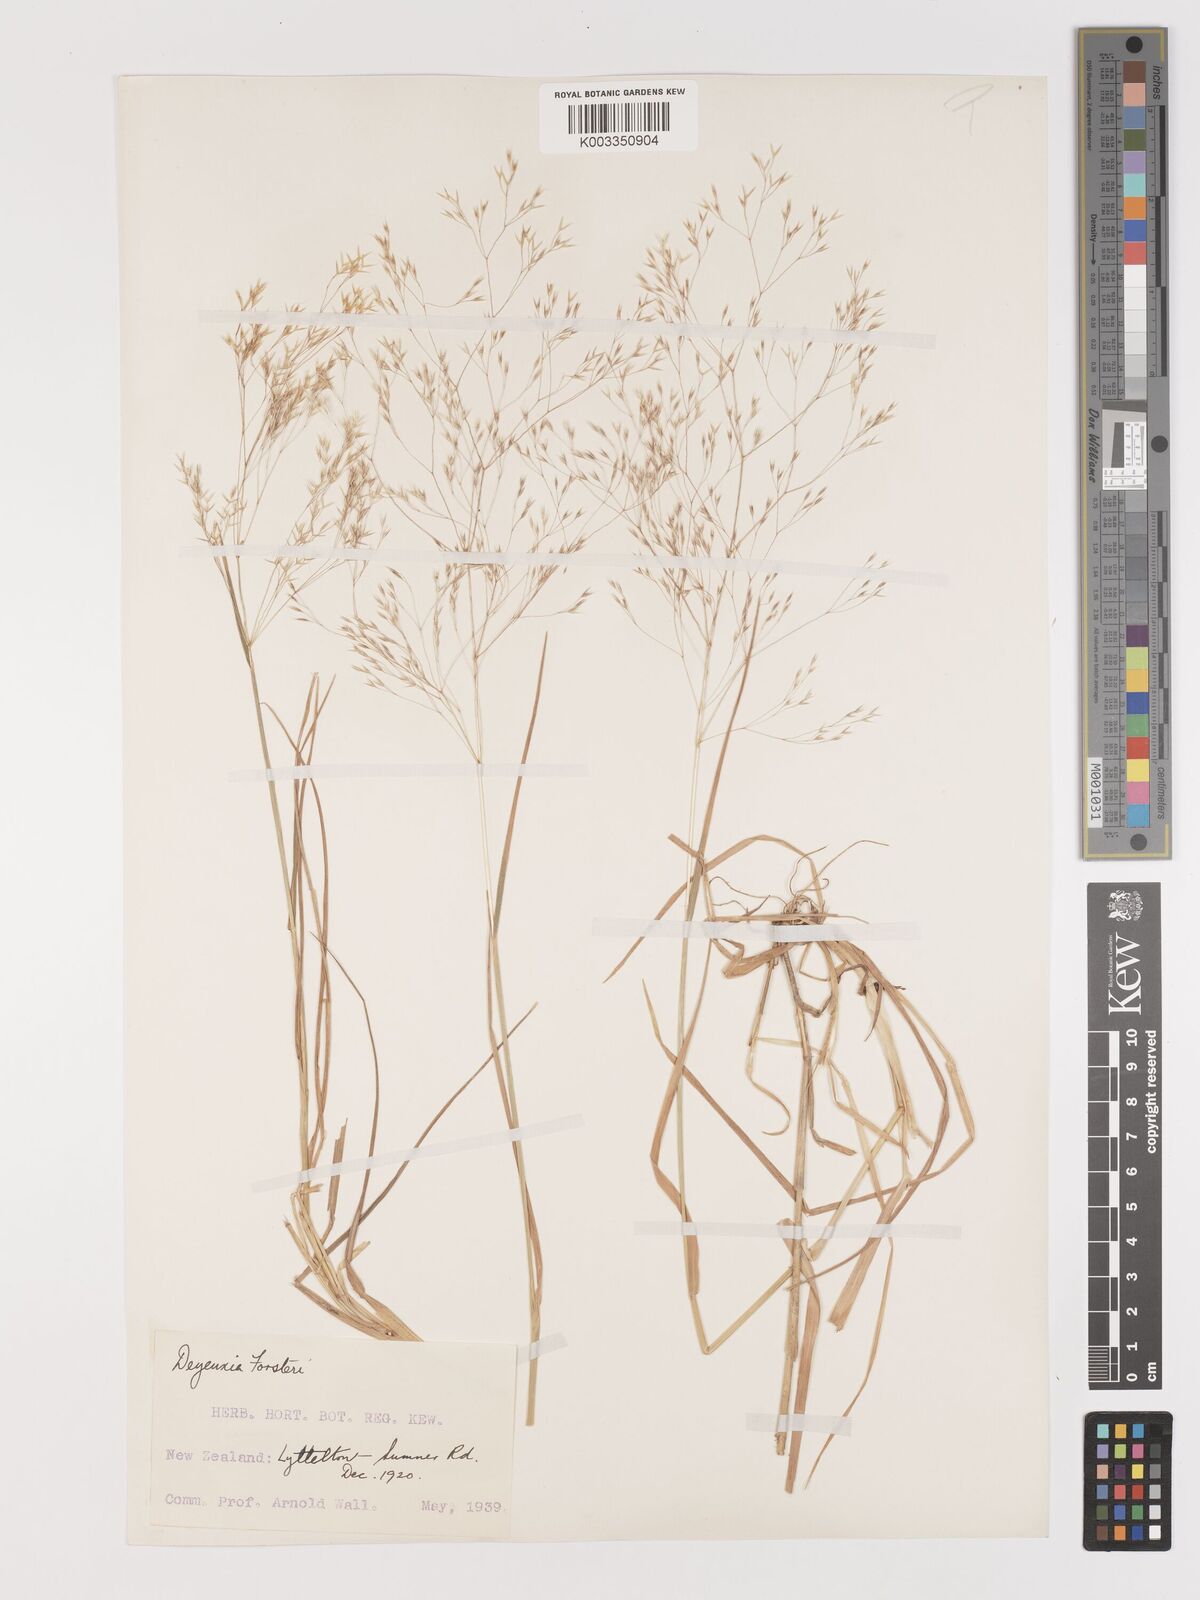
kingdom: Plantae
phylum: Tracheophyta
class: Liliopsida
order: Poales
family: Poaceae
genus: Lachnagrostis
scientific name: Lachnagrostis filiformis
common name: Bentgrass
